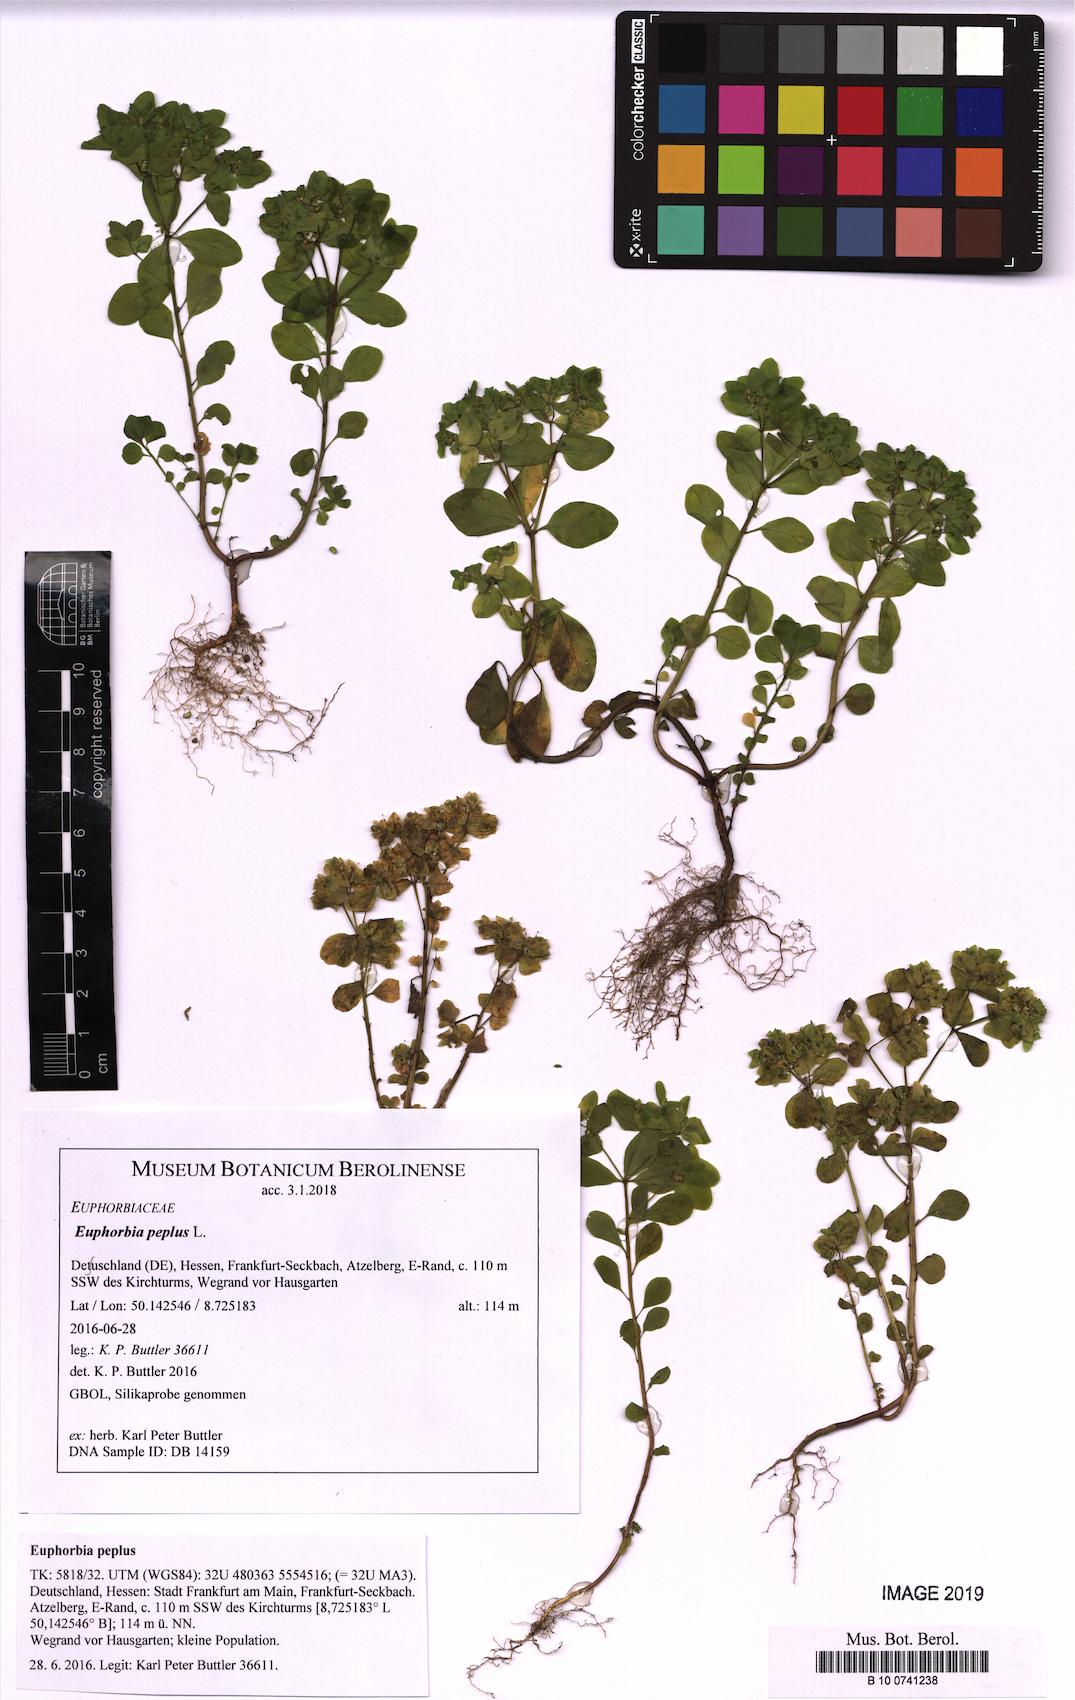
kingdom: Plantae
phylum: Tracheophyta
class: Magnoliopsida
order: Malpighiales
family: Euphorbiaceae
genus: Euphorbia
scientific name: Euphorbia peplus
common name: Petty spurge
